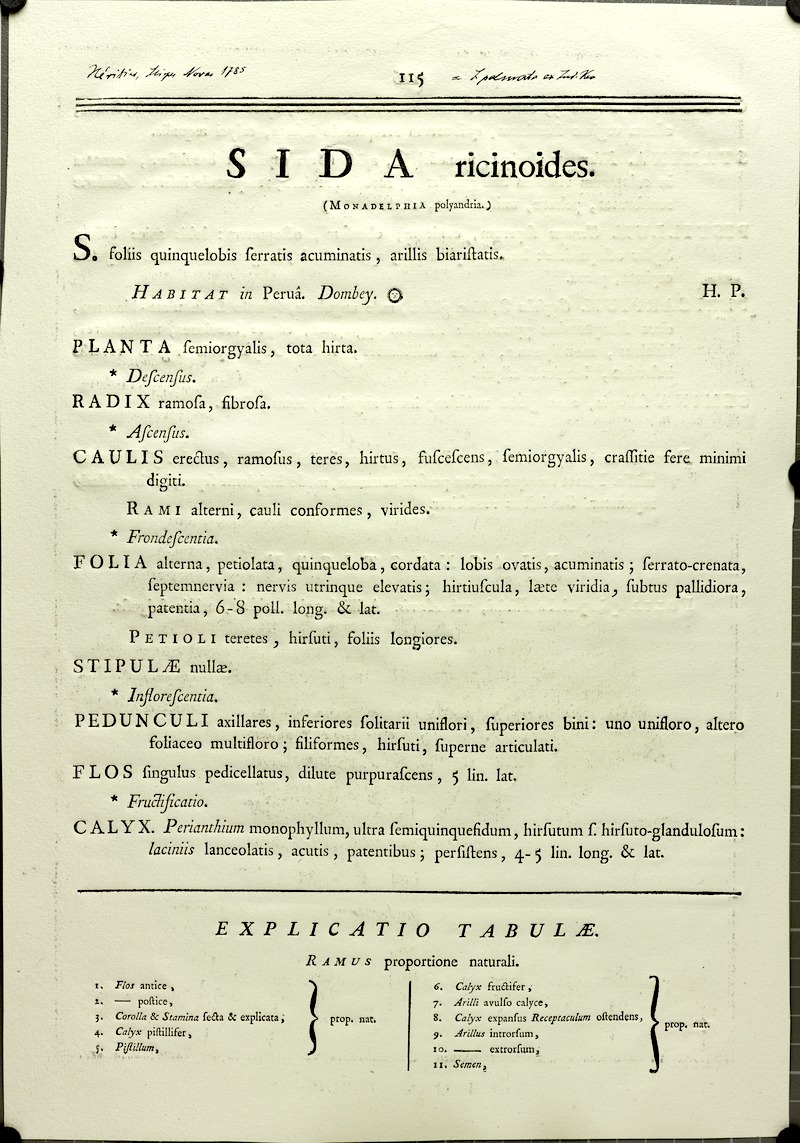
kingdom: Plantae
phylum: Tracheophyta
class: Magnoliopsida
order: Malvales
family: Malvaceae
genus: Sida
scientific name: Sida palmata
